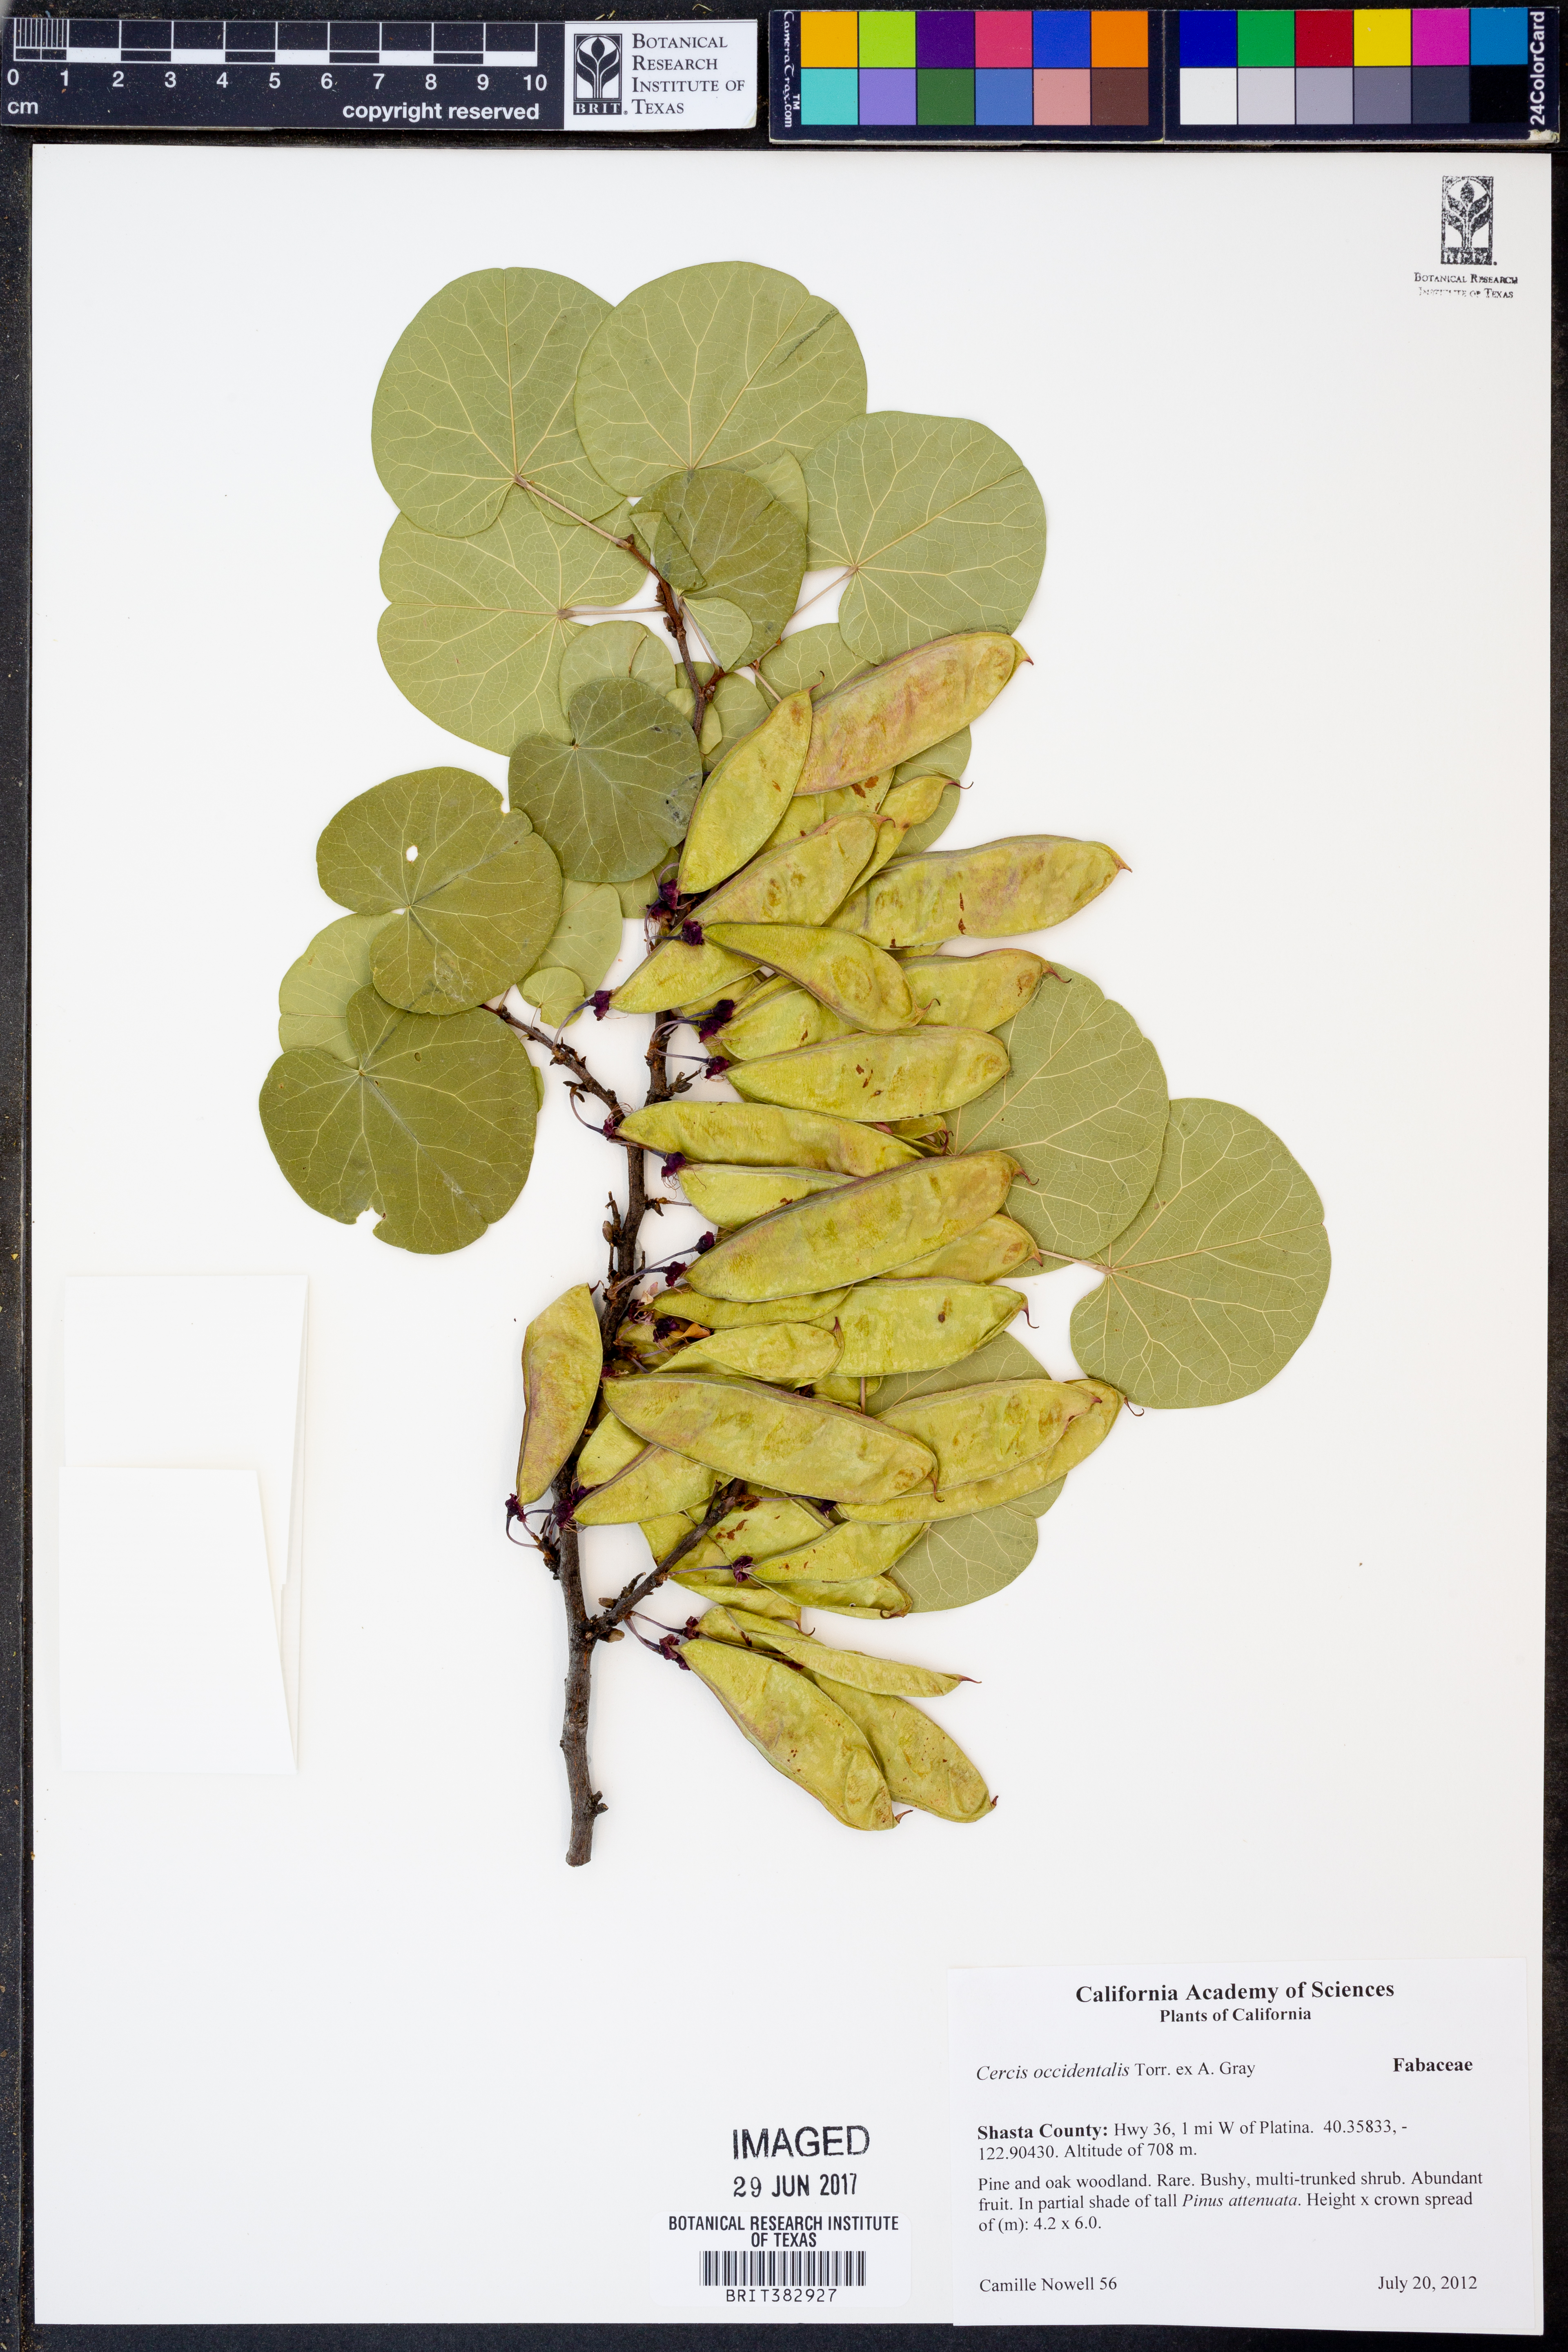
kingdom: Plantae
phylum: Tracheophyta
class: Magnoliopsida
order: Fabales
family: Fabaceae
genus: Cercis
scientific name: Cercis occidentalis
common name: California redbud
